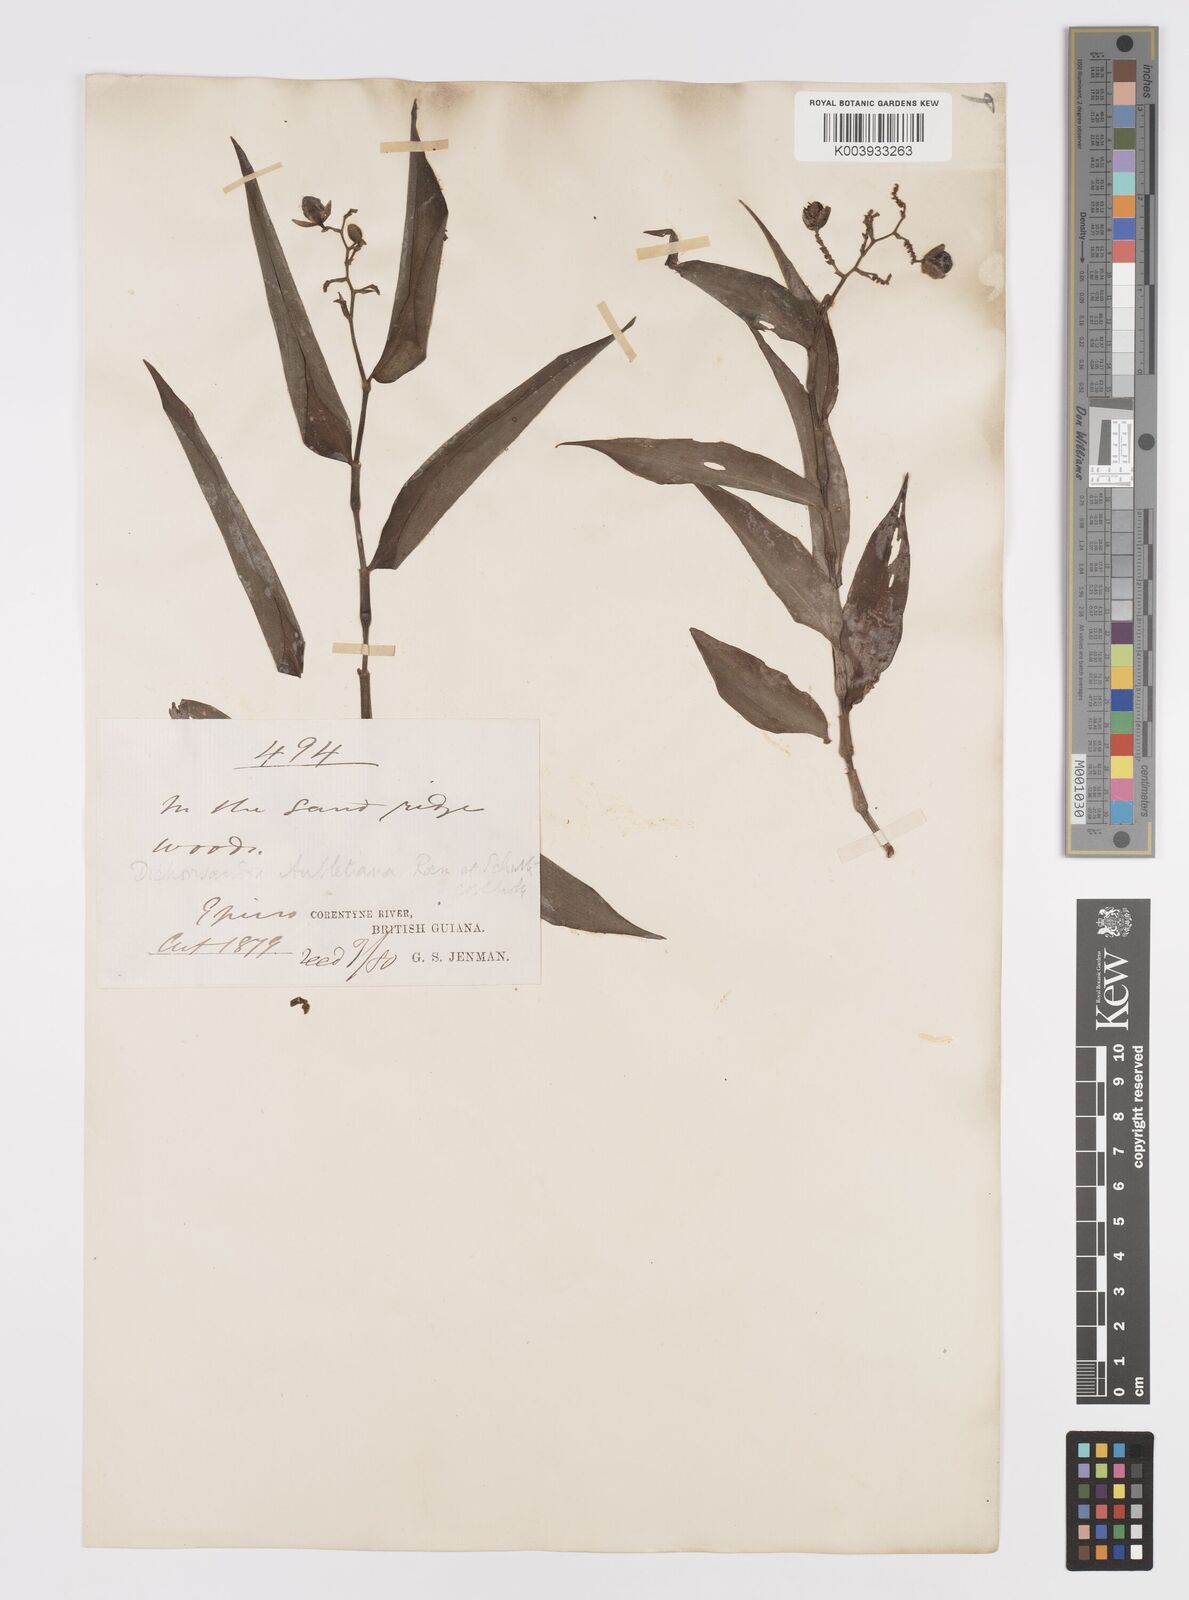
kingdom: Plantae
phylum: Tracheophyta
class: Liliopsida
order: Commelinales
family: Commelinaceae
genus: Dichorisandra
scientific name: Dichorisandra hexandra
